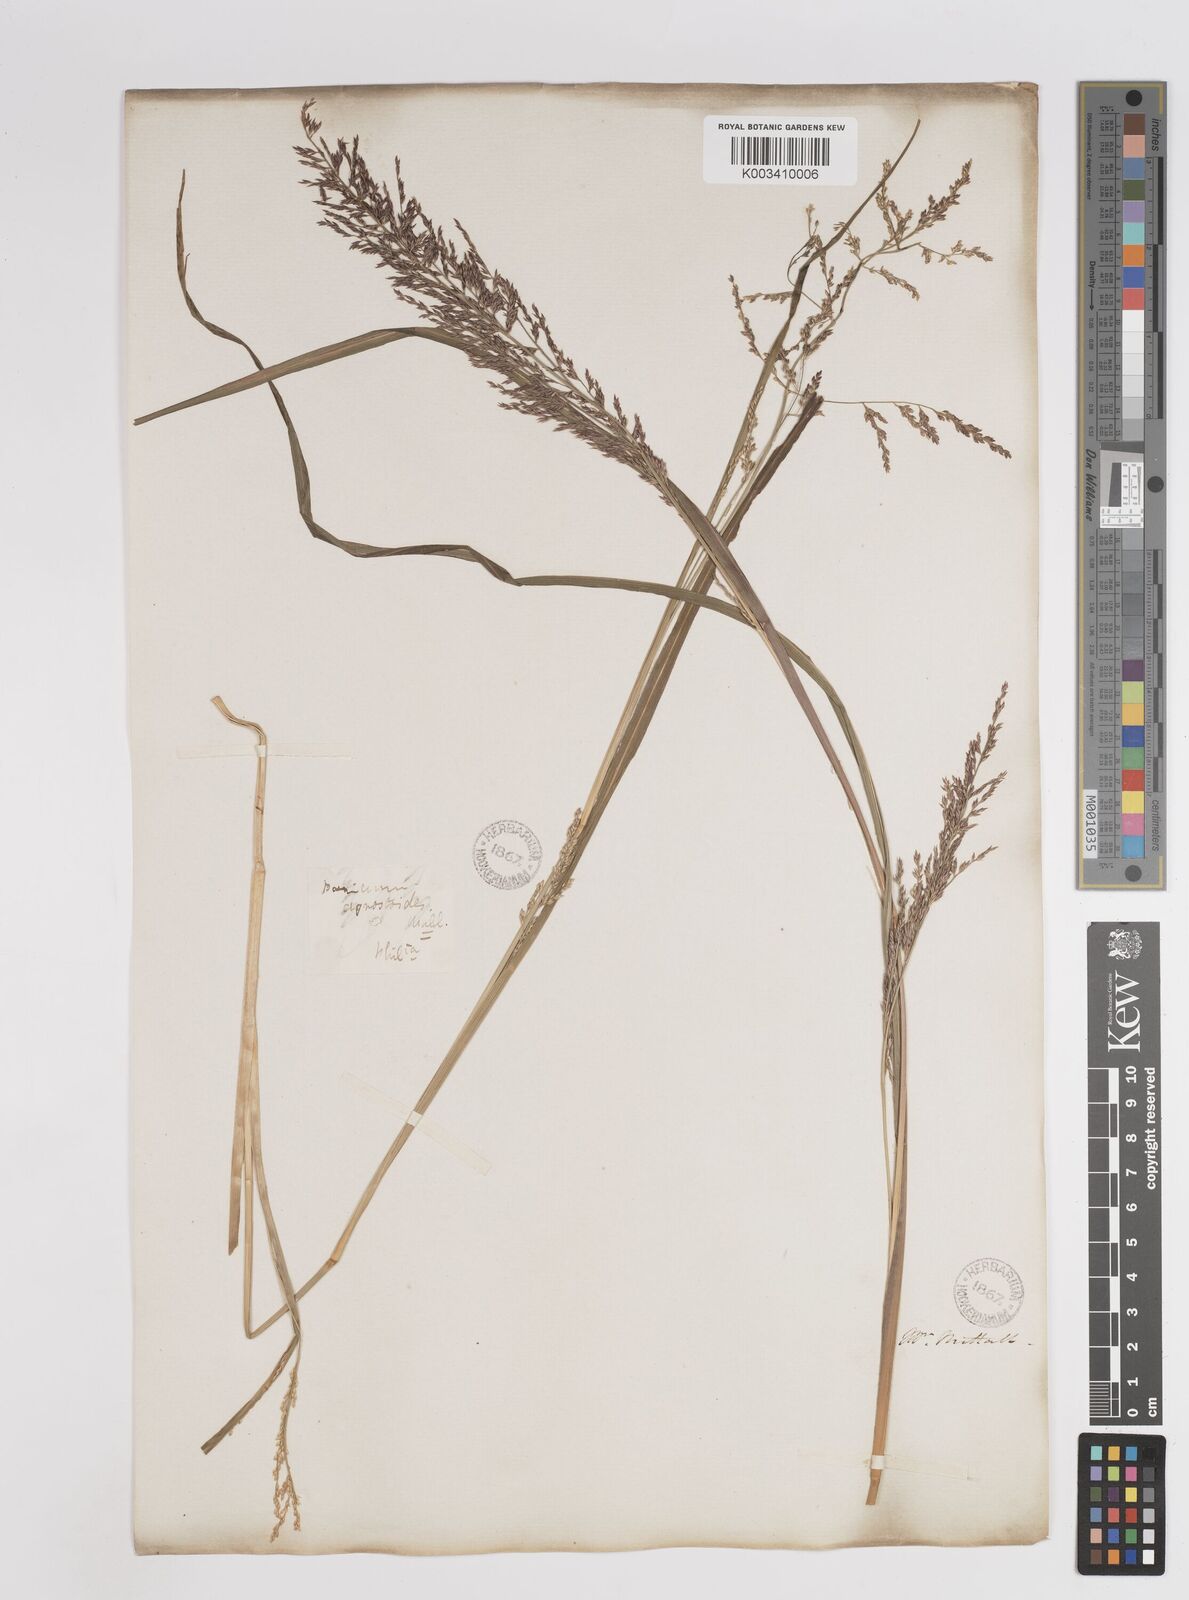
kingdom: Plantae
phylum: Tracheophyta
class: Liliopsida
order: Poales
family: Poaceae
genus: Coleataenia
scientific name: Coleataenia pulchra
